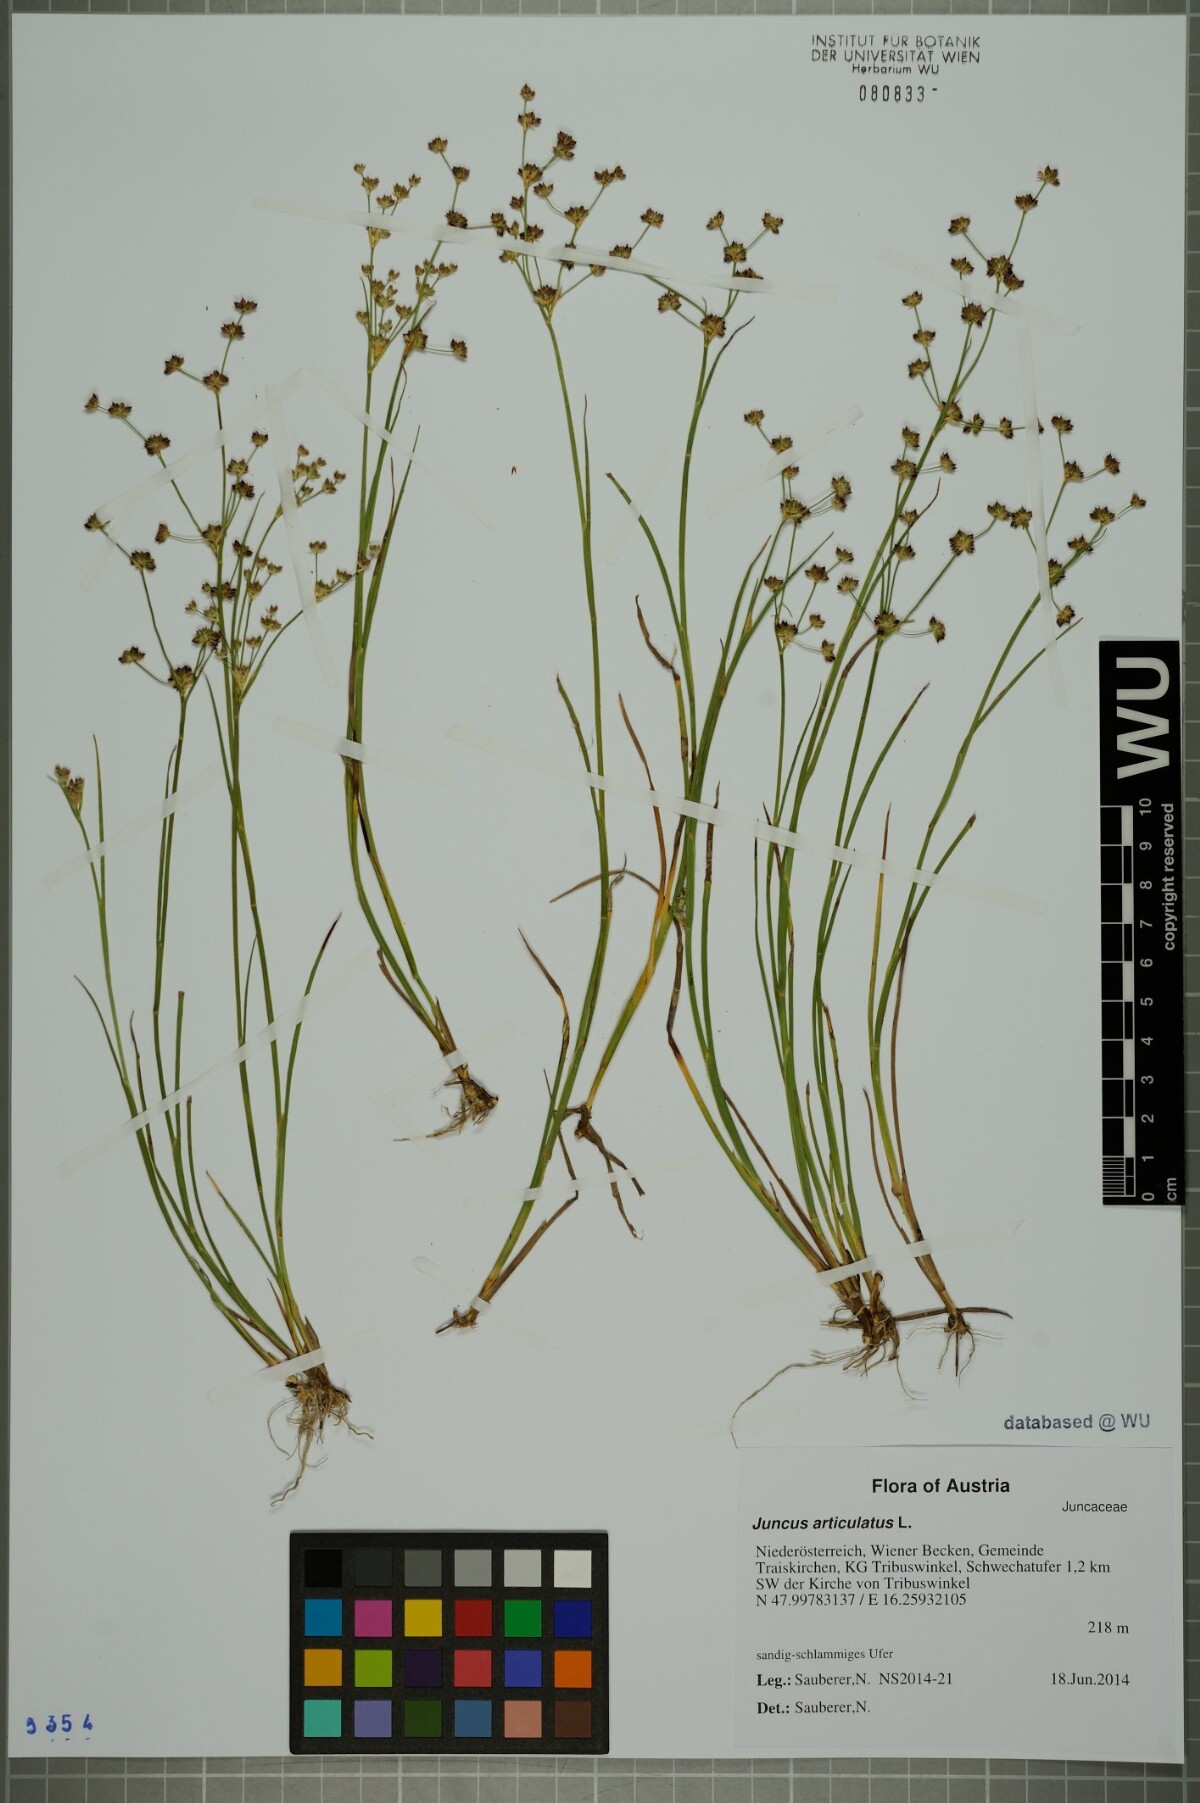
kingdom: Plantae
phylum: Tracheophyta
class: Liliopsida
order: Poales
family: Juncaceae
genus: Juncus
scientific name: Juncus articulatus
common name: Jointed rush
